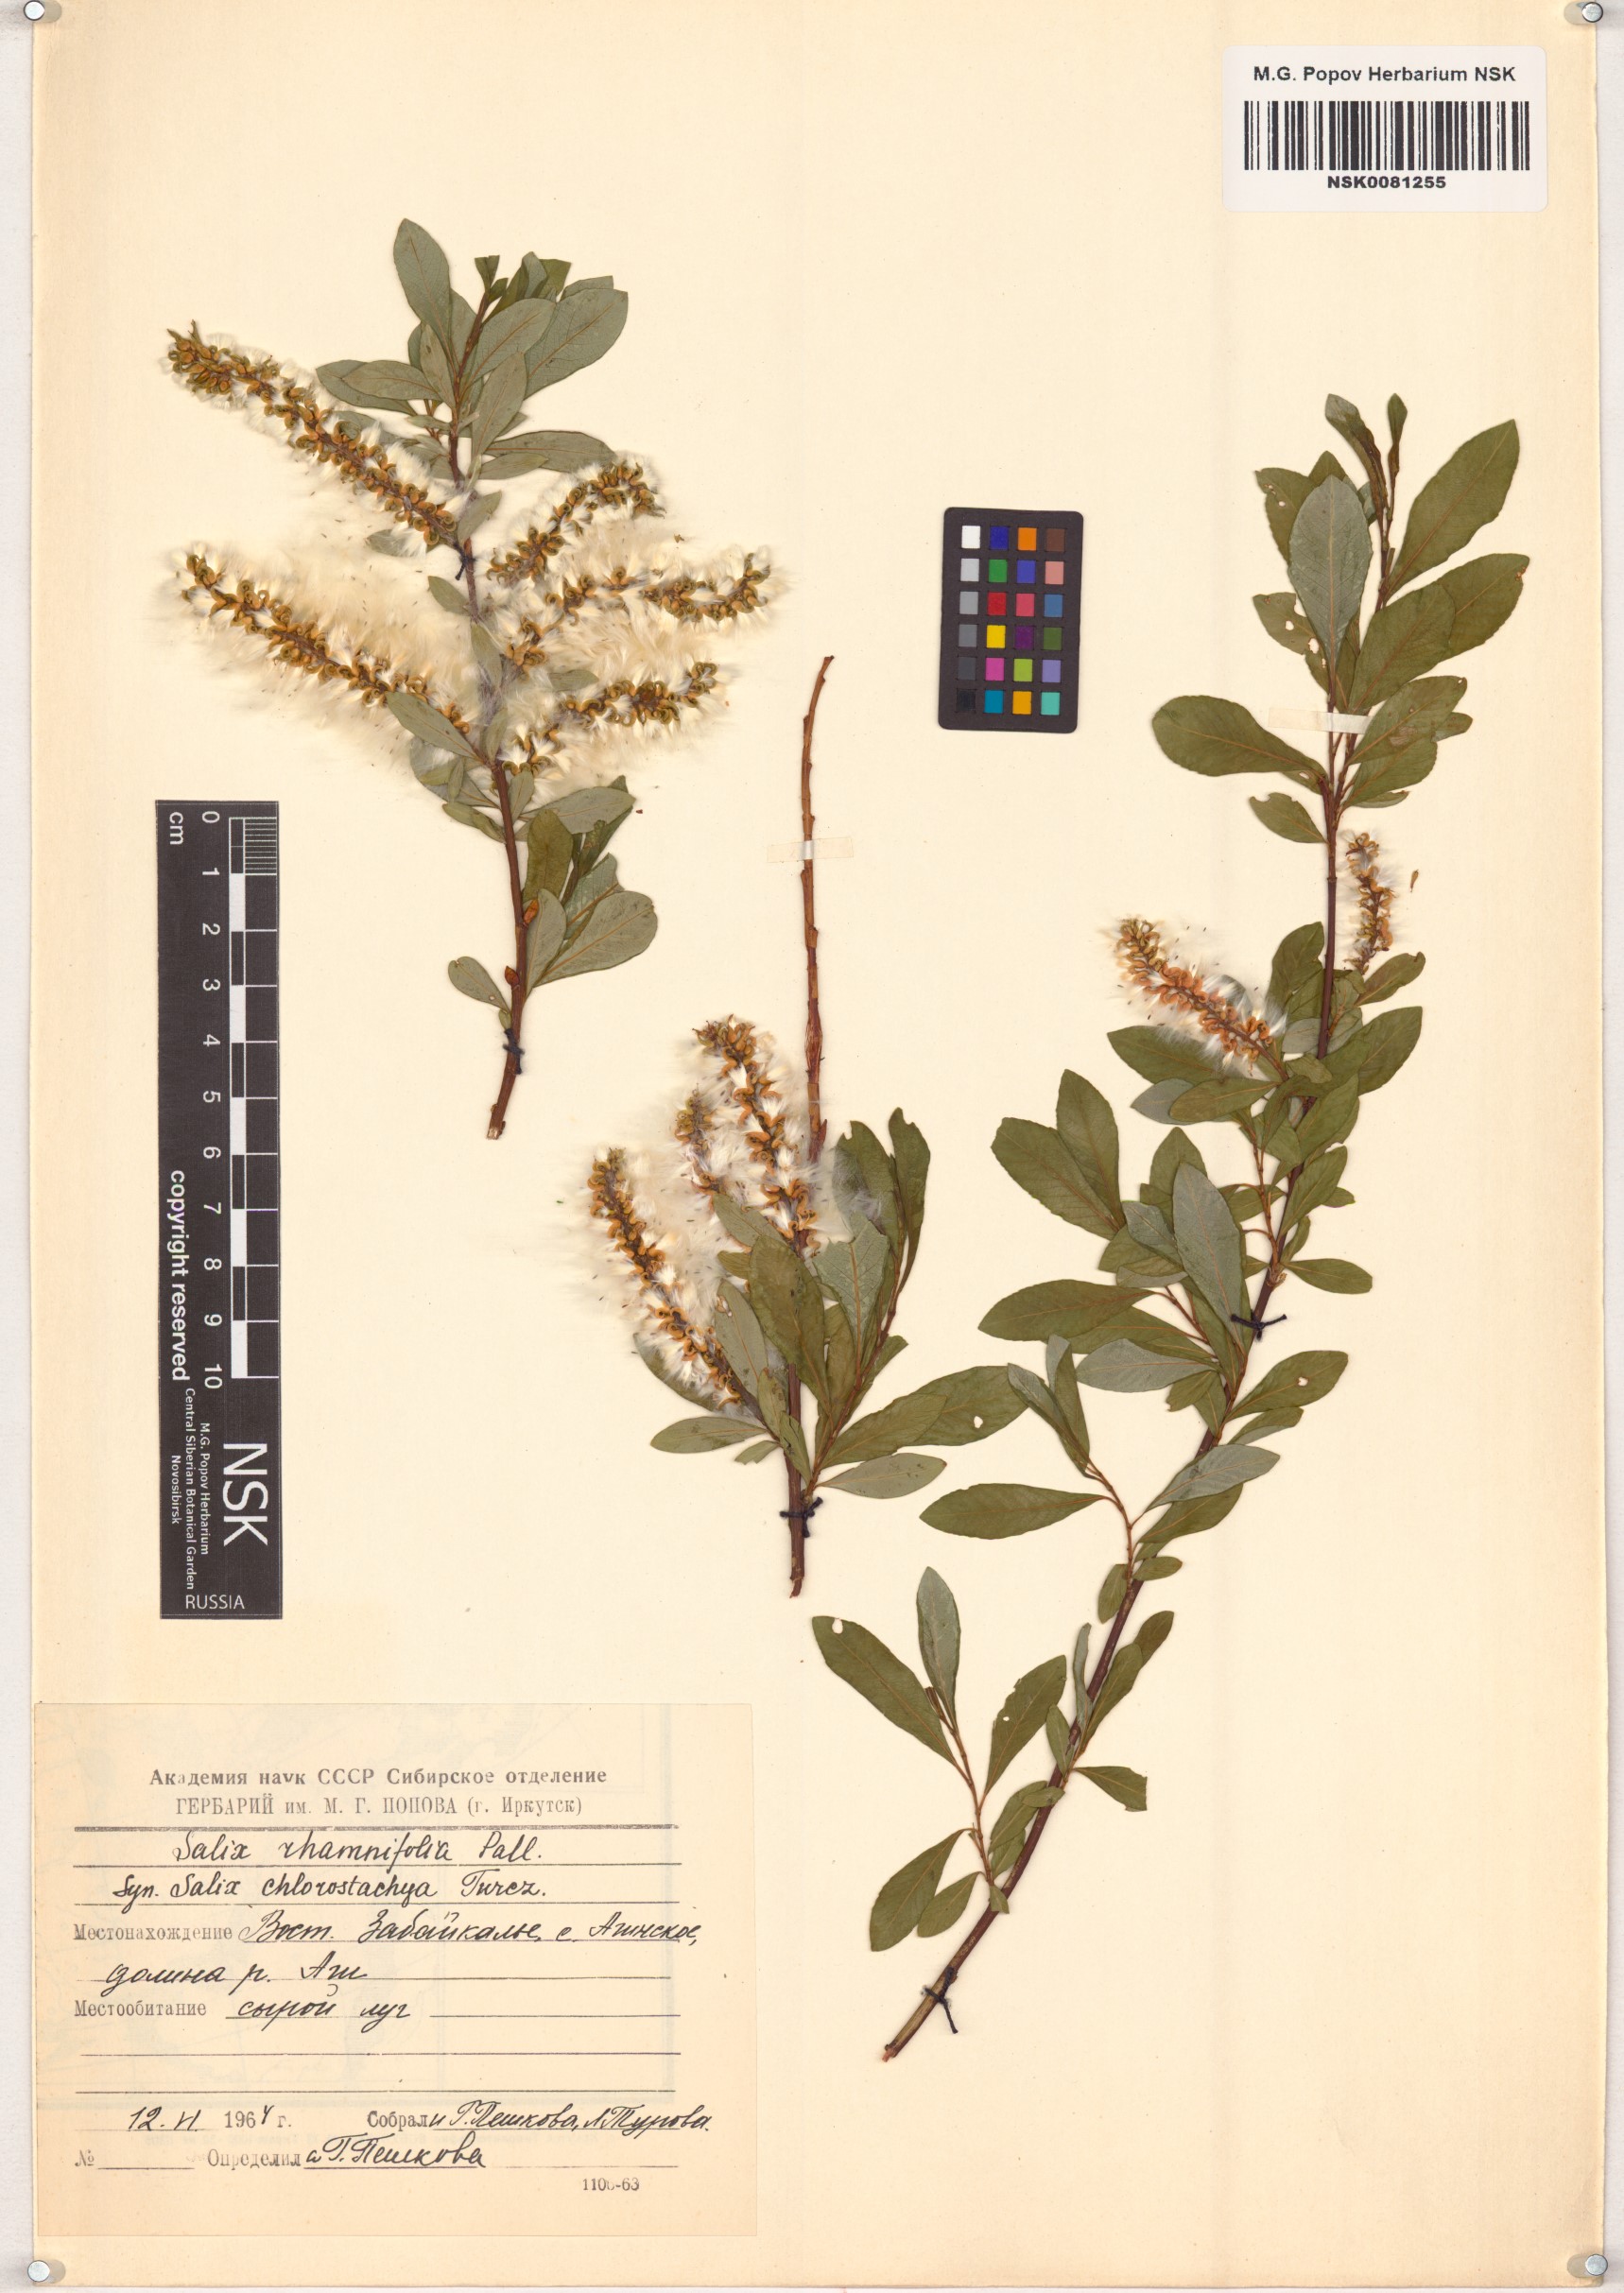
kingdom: Plantae
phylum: Tracheophyta
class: Magnoliopsida
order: Malpighiales
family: Salicaceae
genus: Salix
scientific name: Salix rhamnifolia
